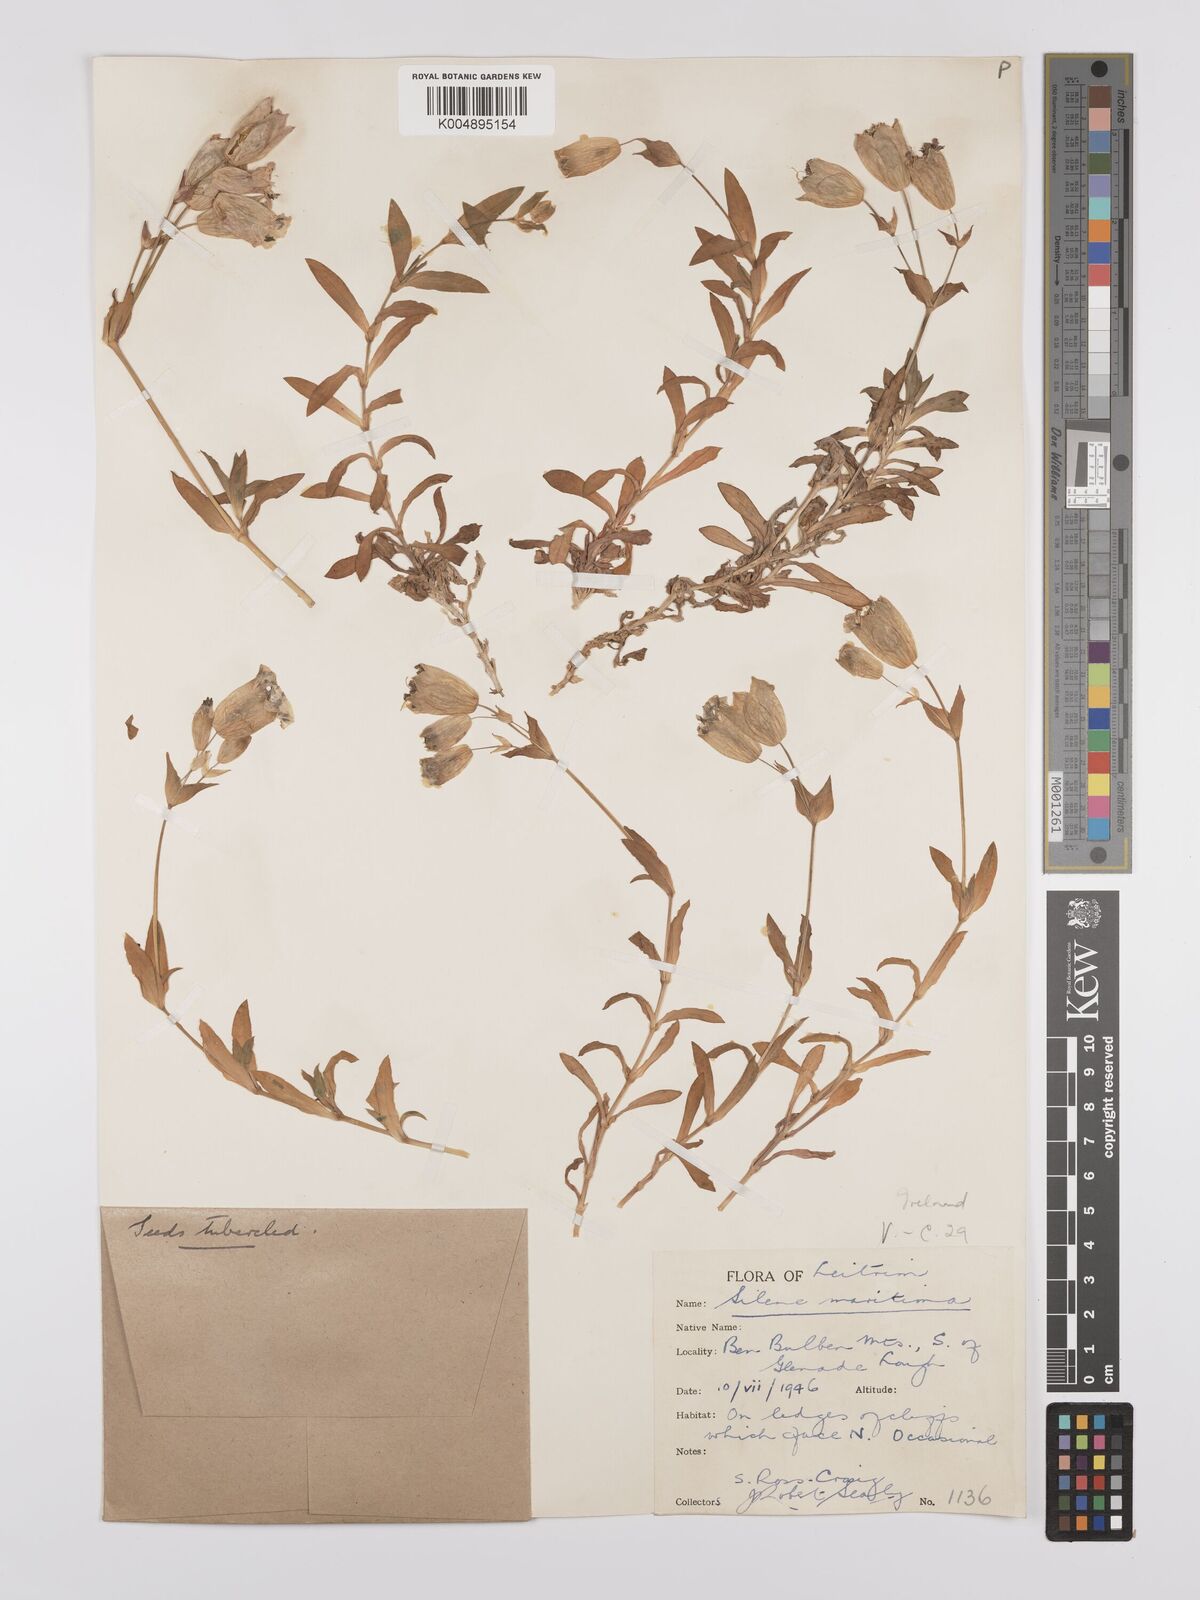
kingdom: Plantae
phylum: Tracheophyta
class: Magnoliopsida
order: Caryophyllales
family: Caryophyllaceae
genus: Silene
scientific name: Silene uniflora
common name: Sea campion
